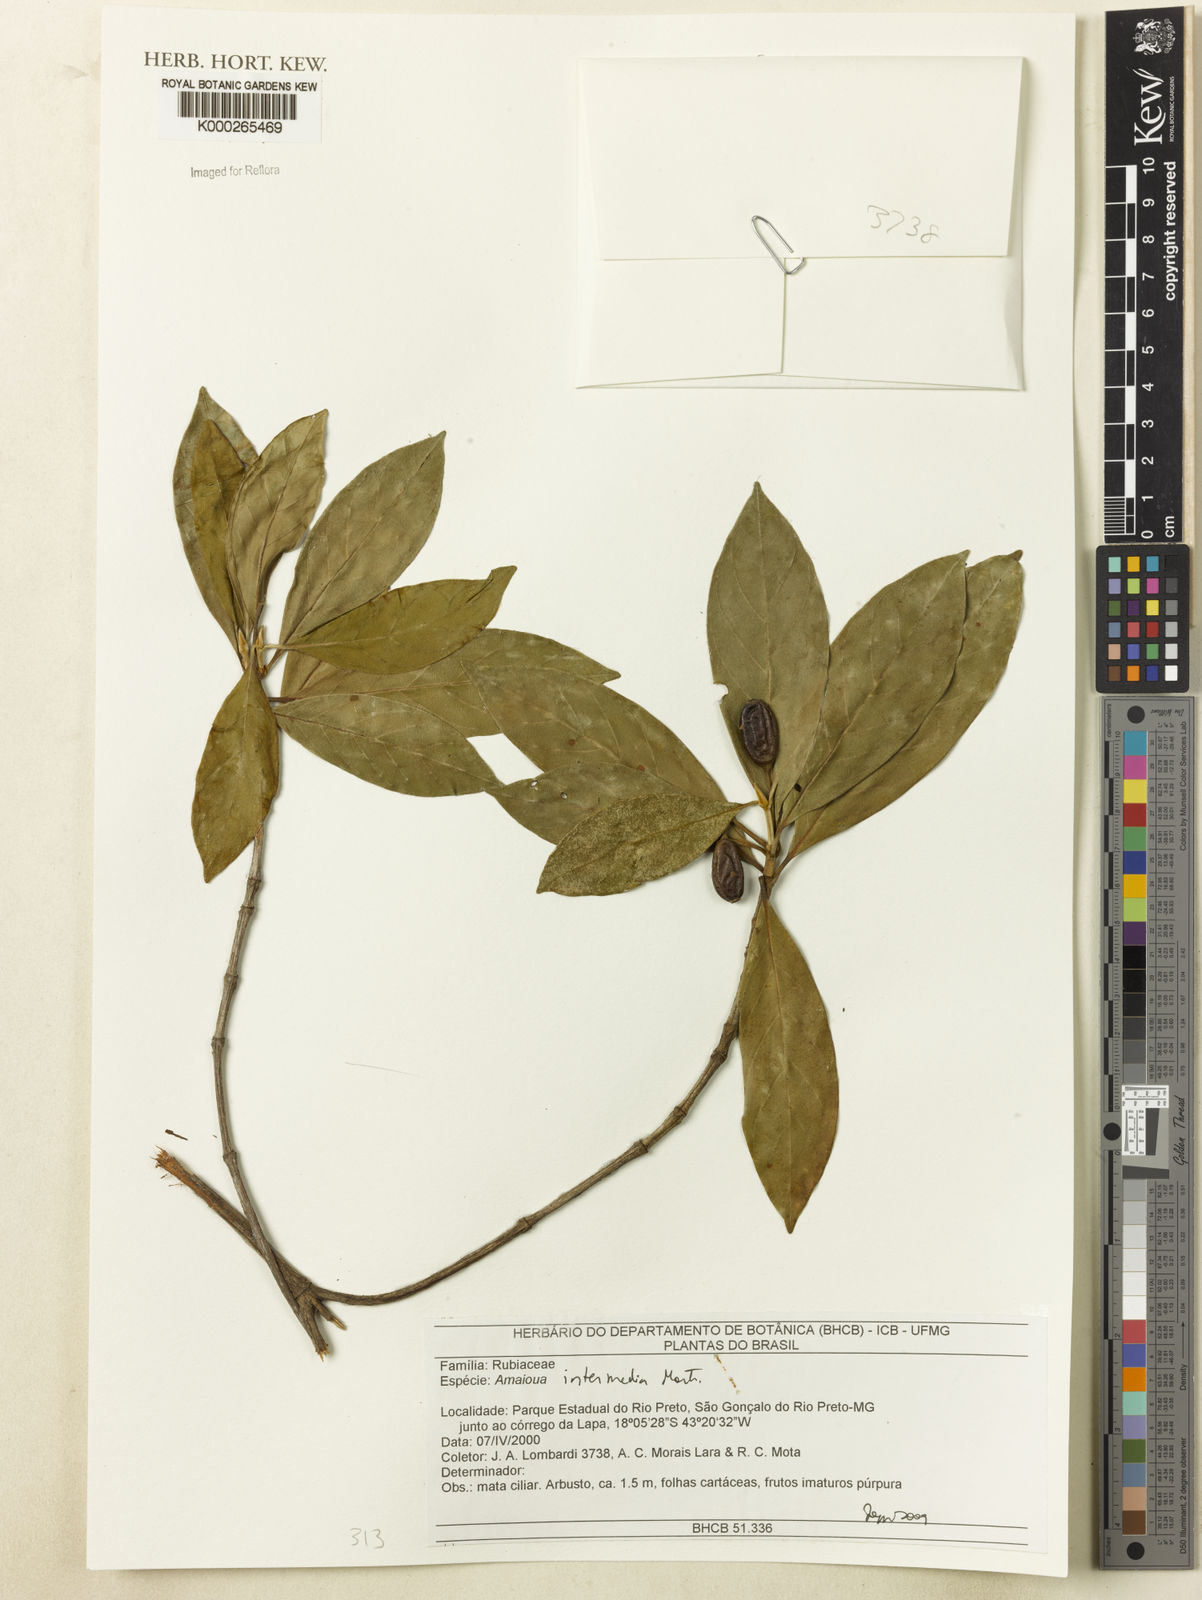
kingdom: Plantae
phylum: Tracheophyta
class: Magnoliopsida
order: Gentianales
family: Rubiaceae
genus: Amaioua
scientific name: Amaioua intermedia
